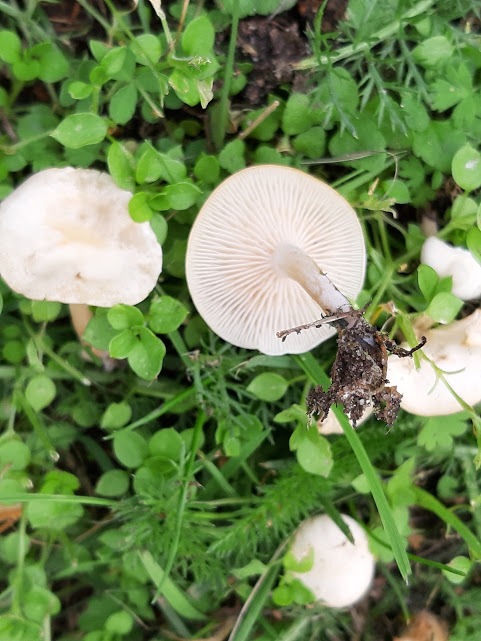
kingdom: Fungi
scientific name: Fungi
